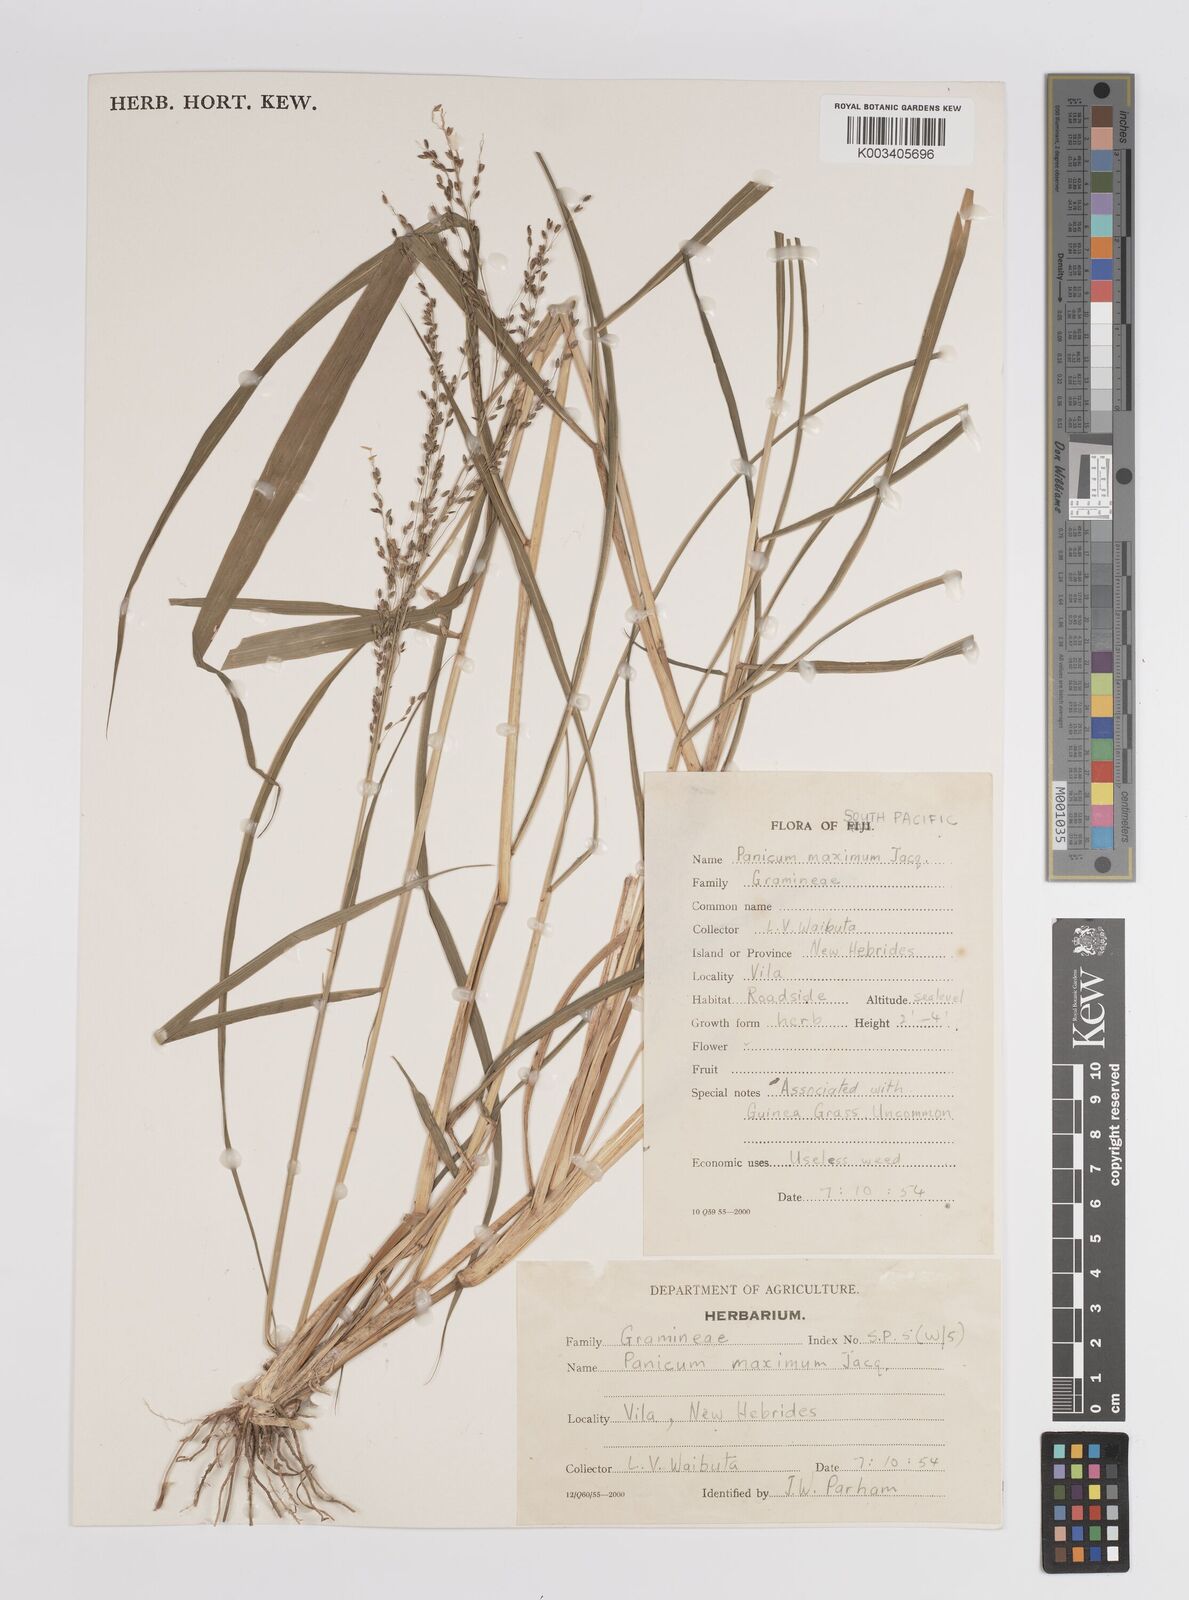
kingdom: Plantae
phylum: Tracheophyta
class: Liliopsida
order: Poales
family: Poaceae
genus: Megathyrsus
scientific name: Megathyrsus maximus
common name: Guineagrass
